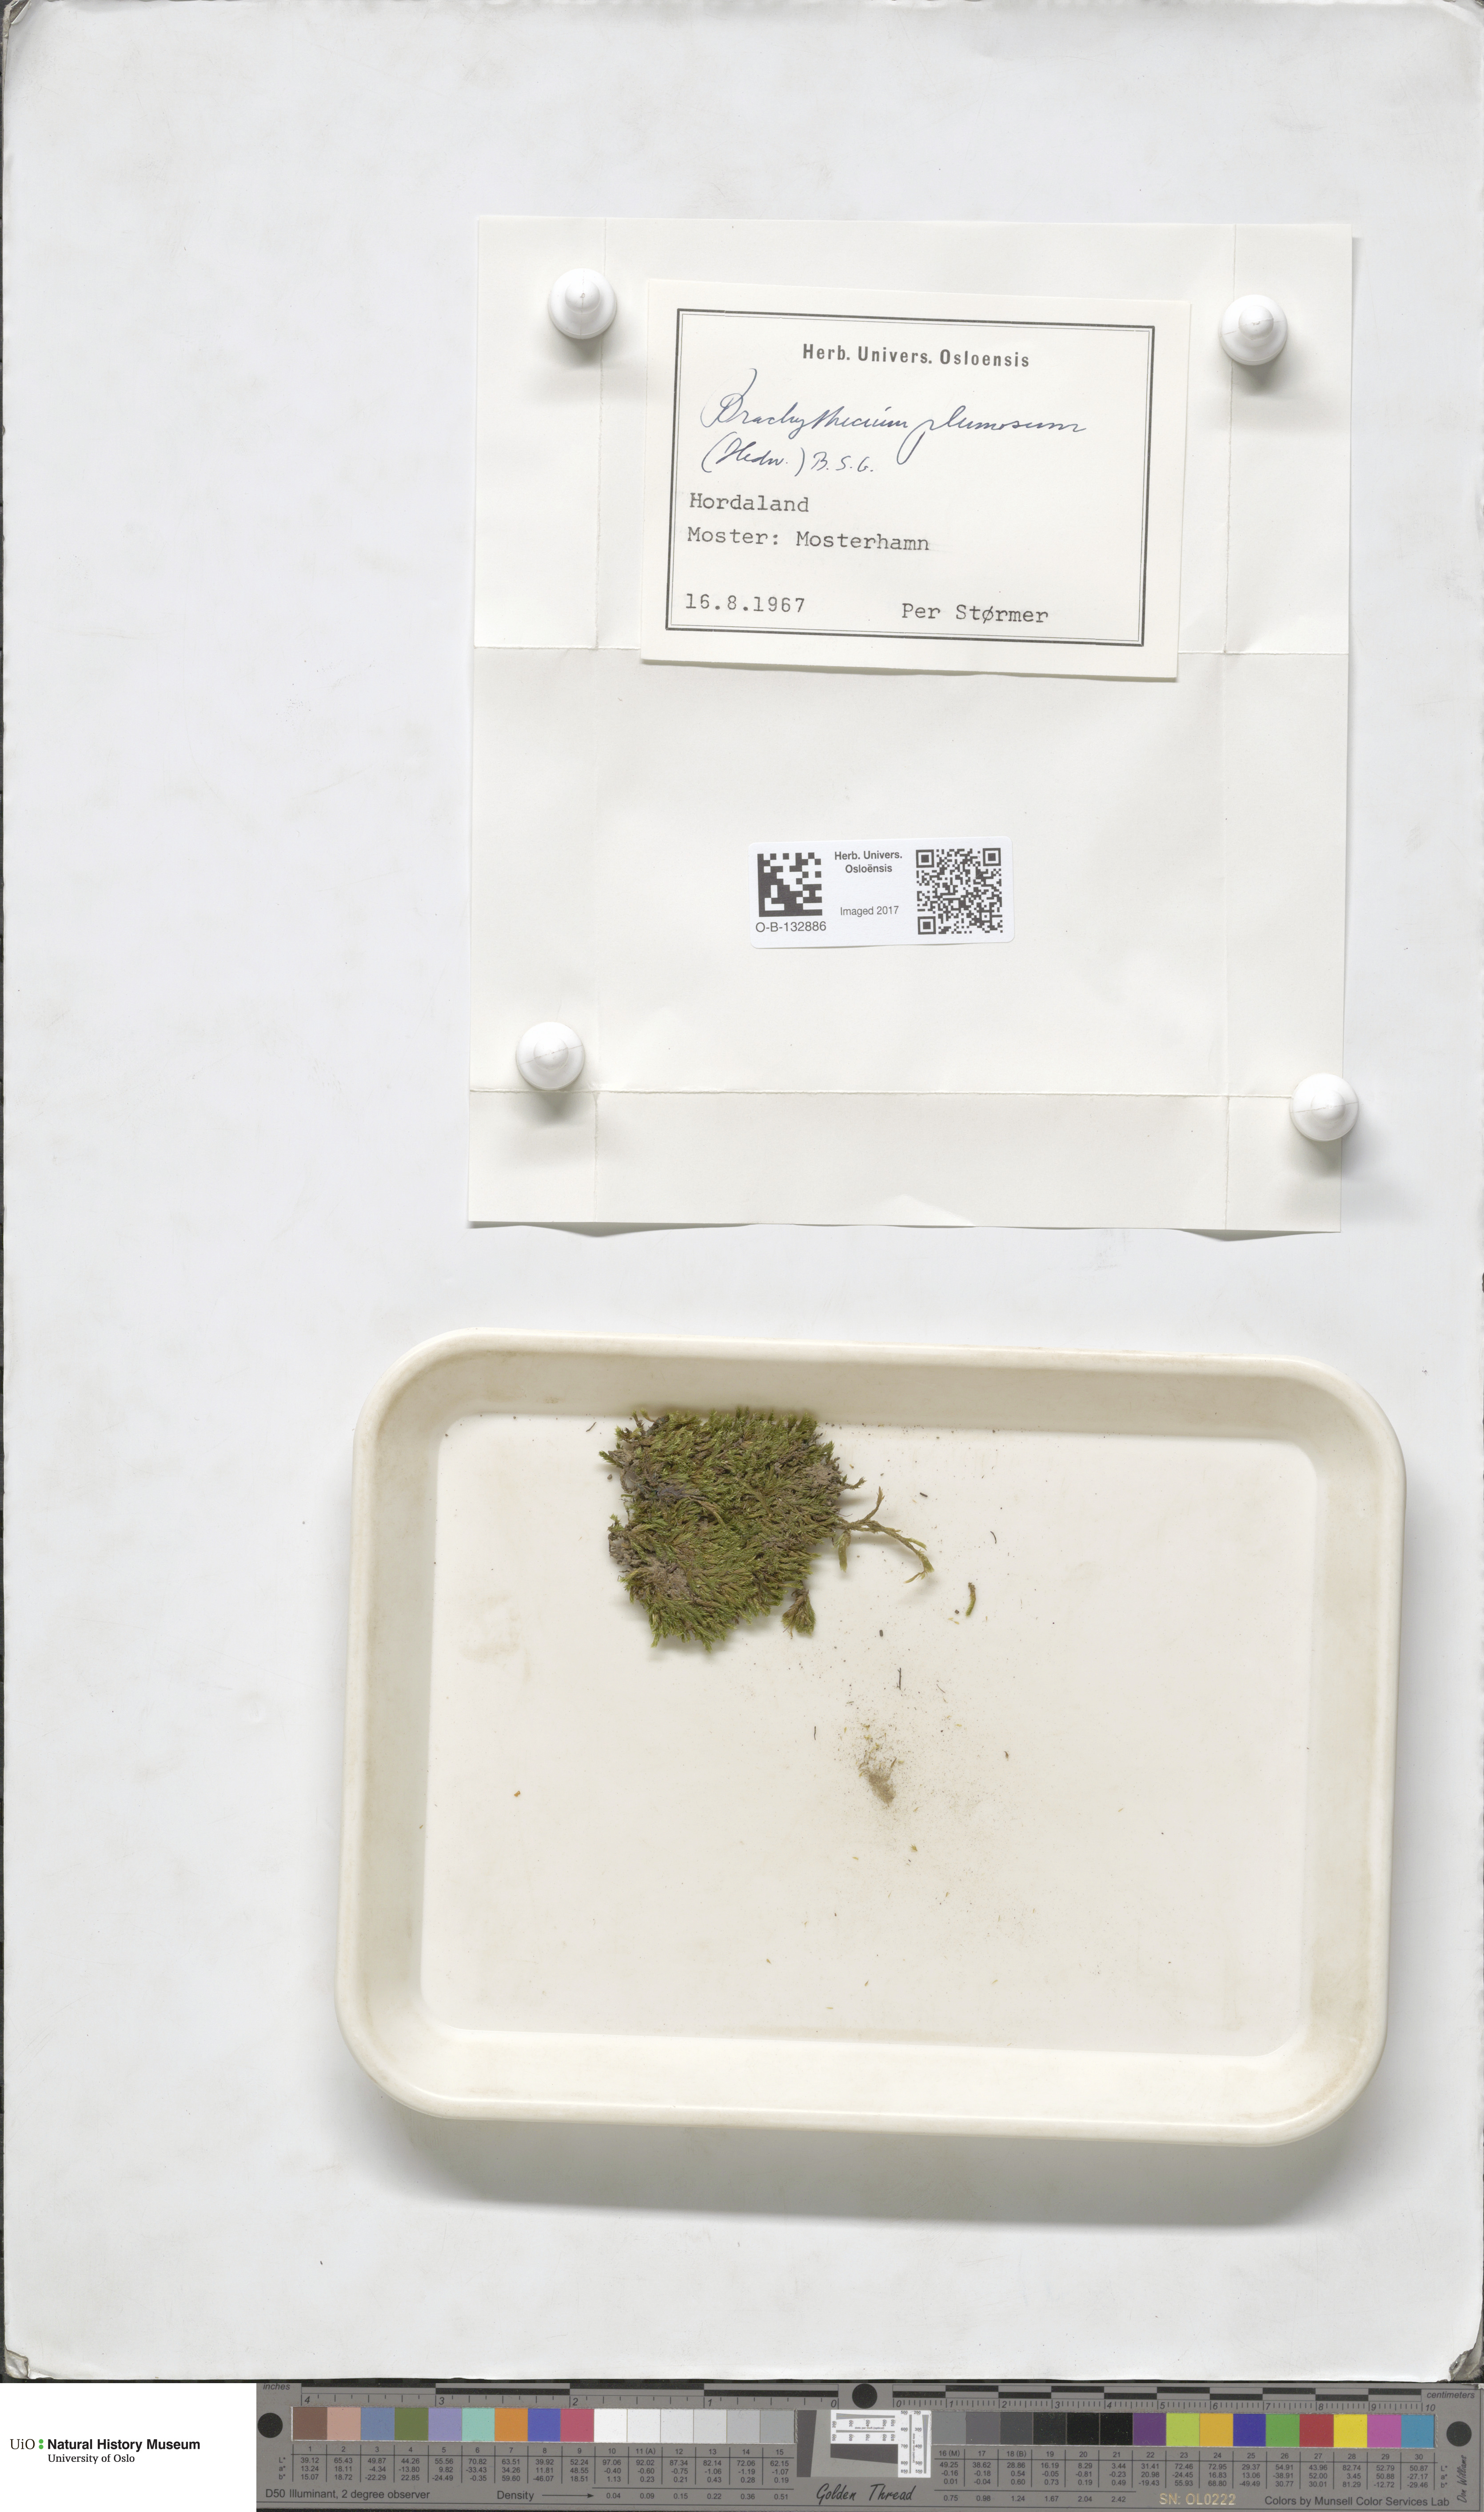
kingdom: Plantae
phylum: Bryophyta
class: Bryopsida
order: Hypnales
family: Brachytheciaceae
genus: Sciuro-hypnum
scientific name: Sciuro-hypnum plumosum
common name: Rusty feather-moss
